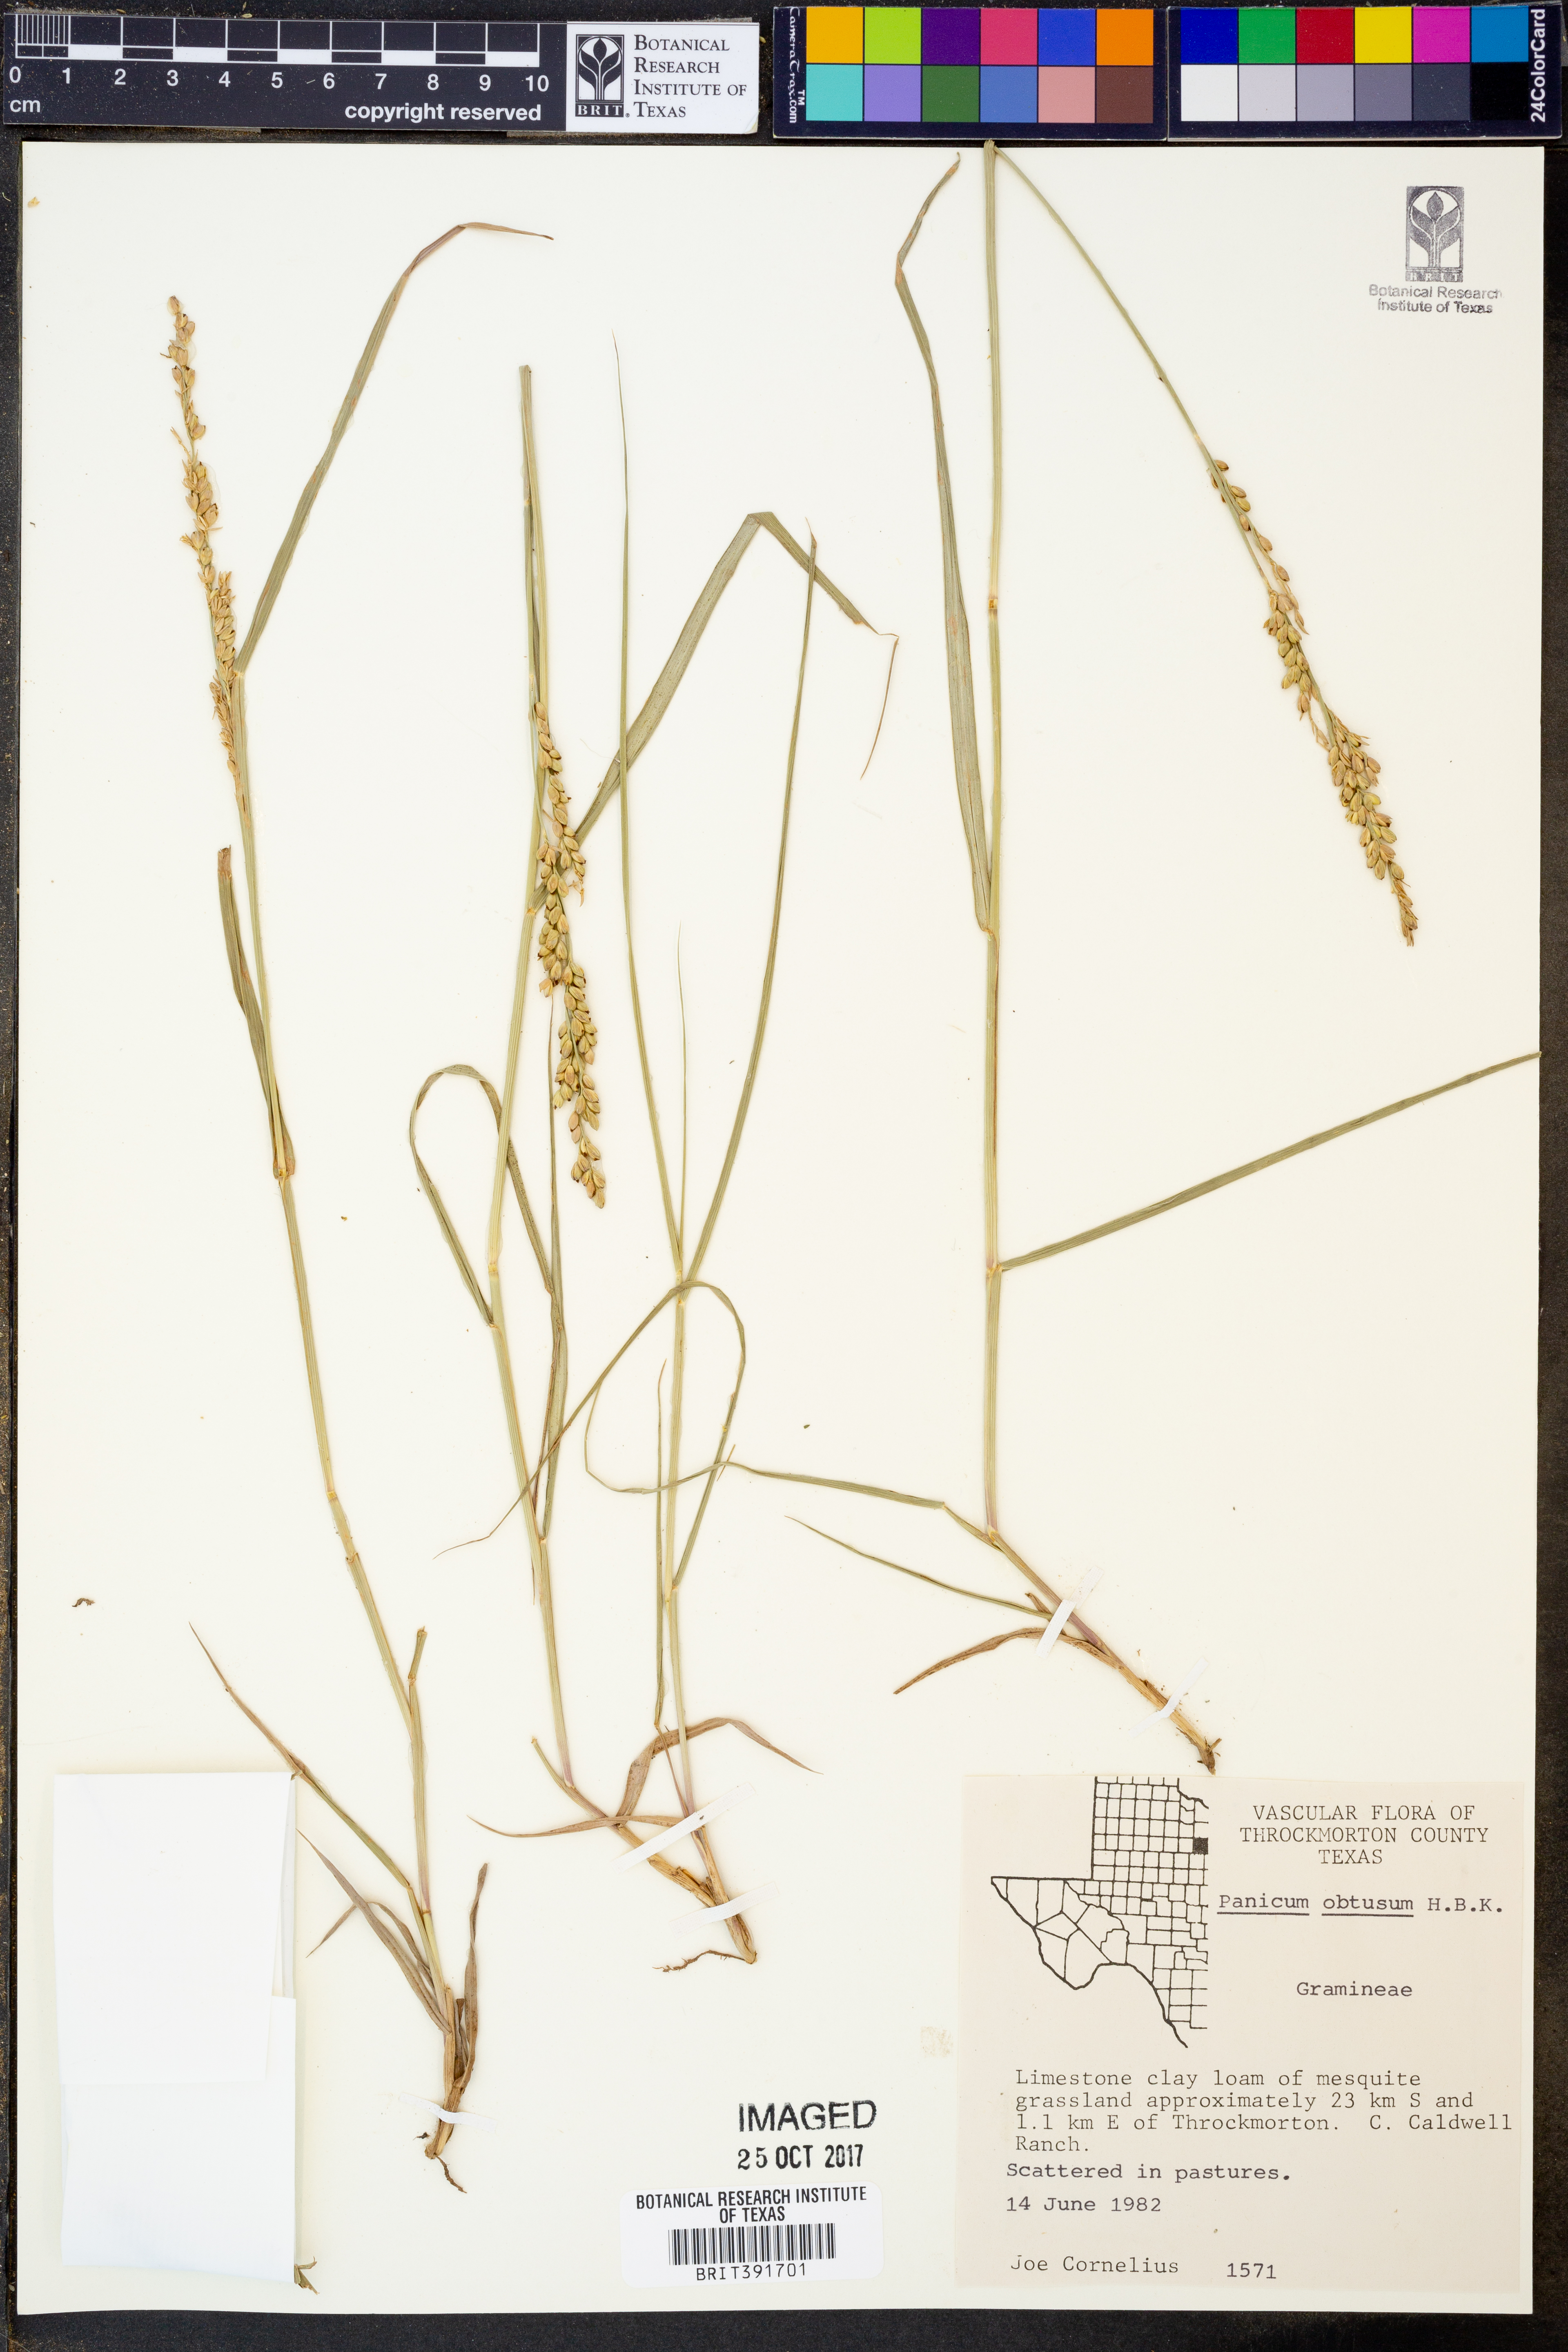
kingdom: Plantae
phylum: Tracheophyta
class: Liliopsida
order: Poales
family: Poaceae
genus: Hopia
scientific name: Hopia obtusa
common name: Vine-mesquite
